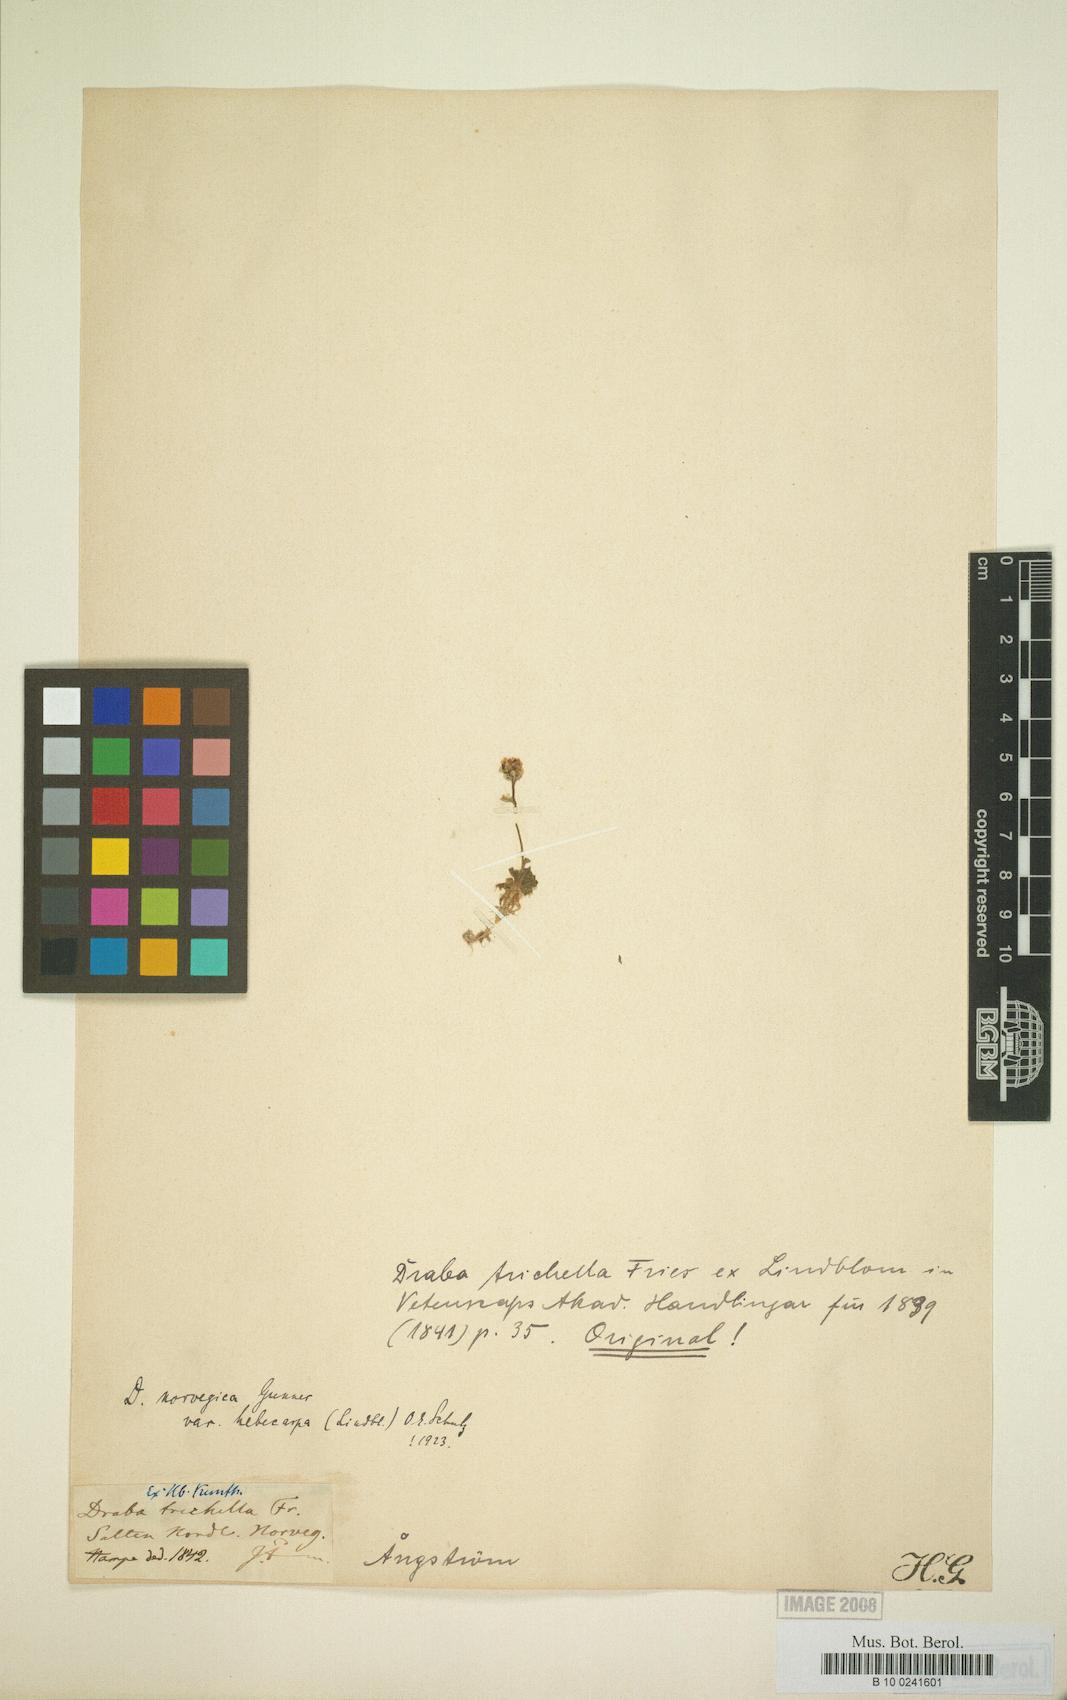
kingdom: Plantae
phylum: Tracheophyta
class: Magnoliopsida
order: Brassicales
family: Brassicaceae
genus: Draba
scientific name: Draba norvegica
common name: Rock whitlowgrass
